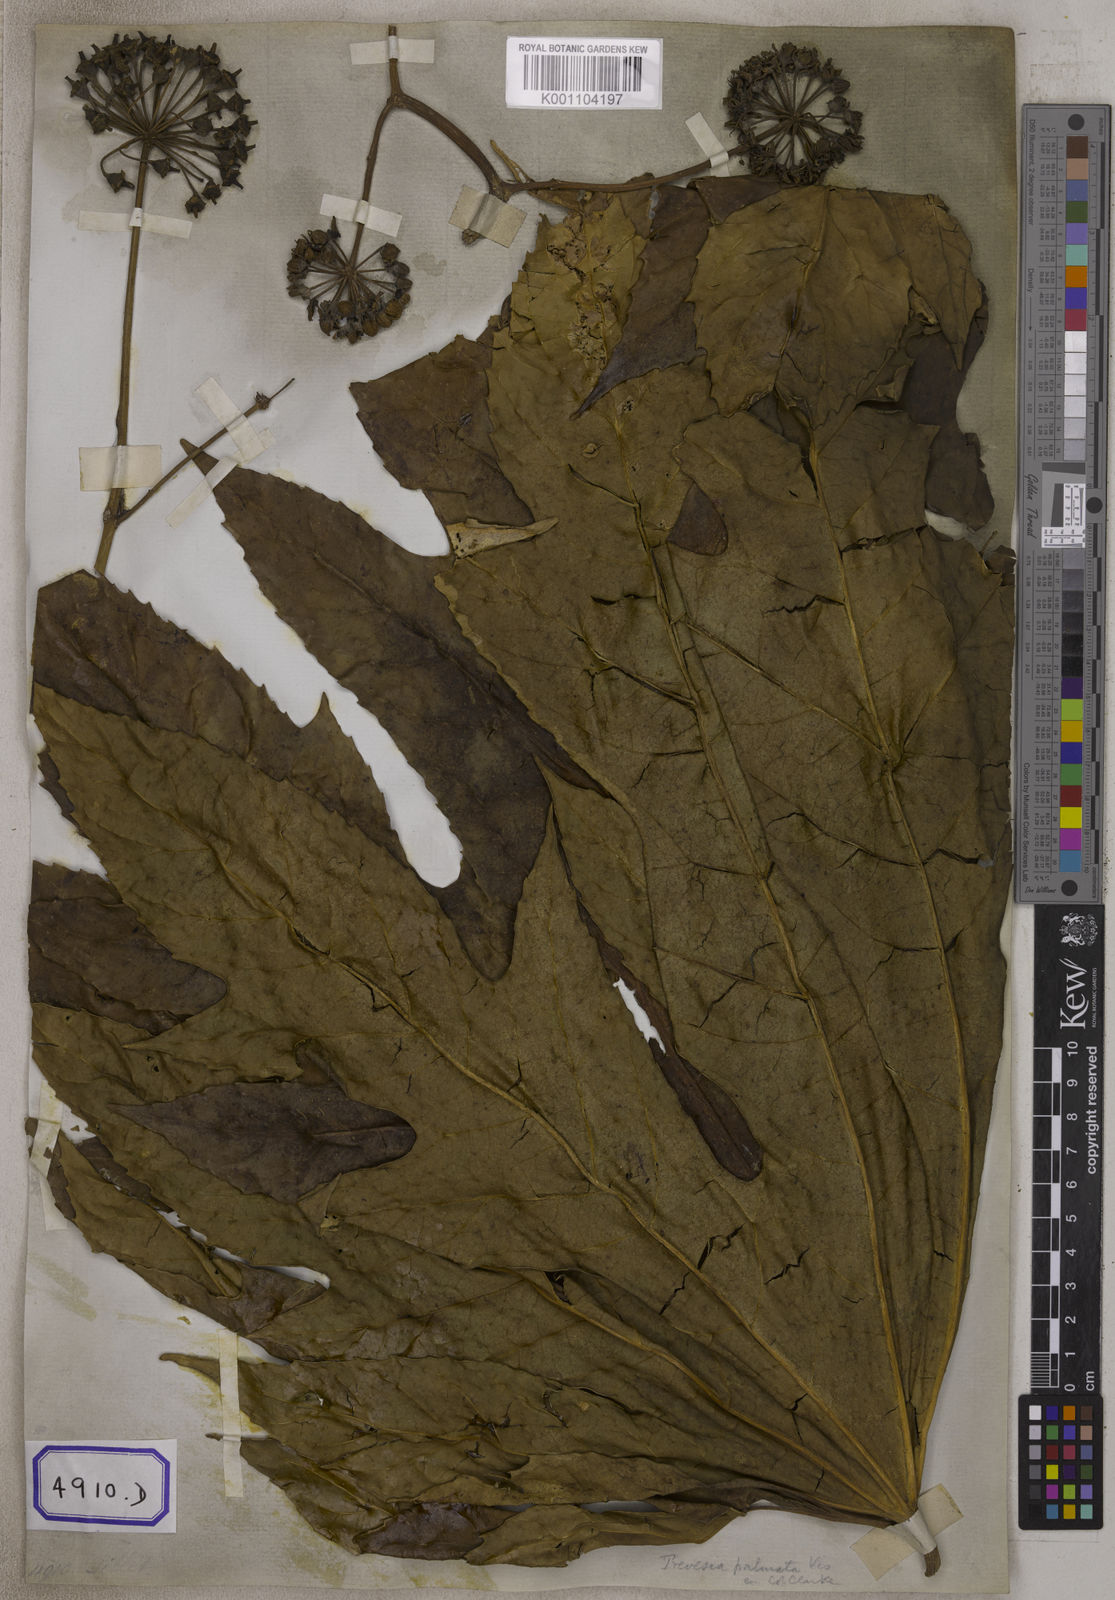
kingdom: Plantae
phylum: Tracheophyta
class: Magnoliopsida
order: Apiales
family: Araliaceae
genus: Hedera
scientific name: Hedera
